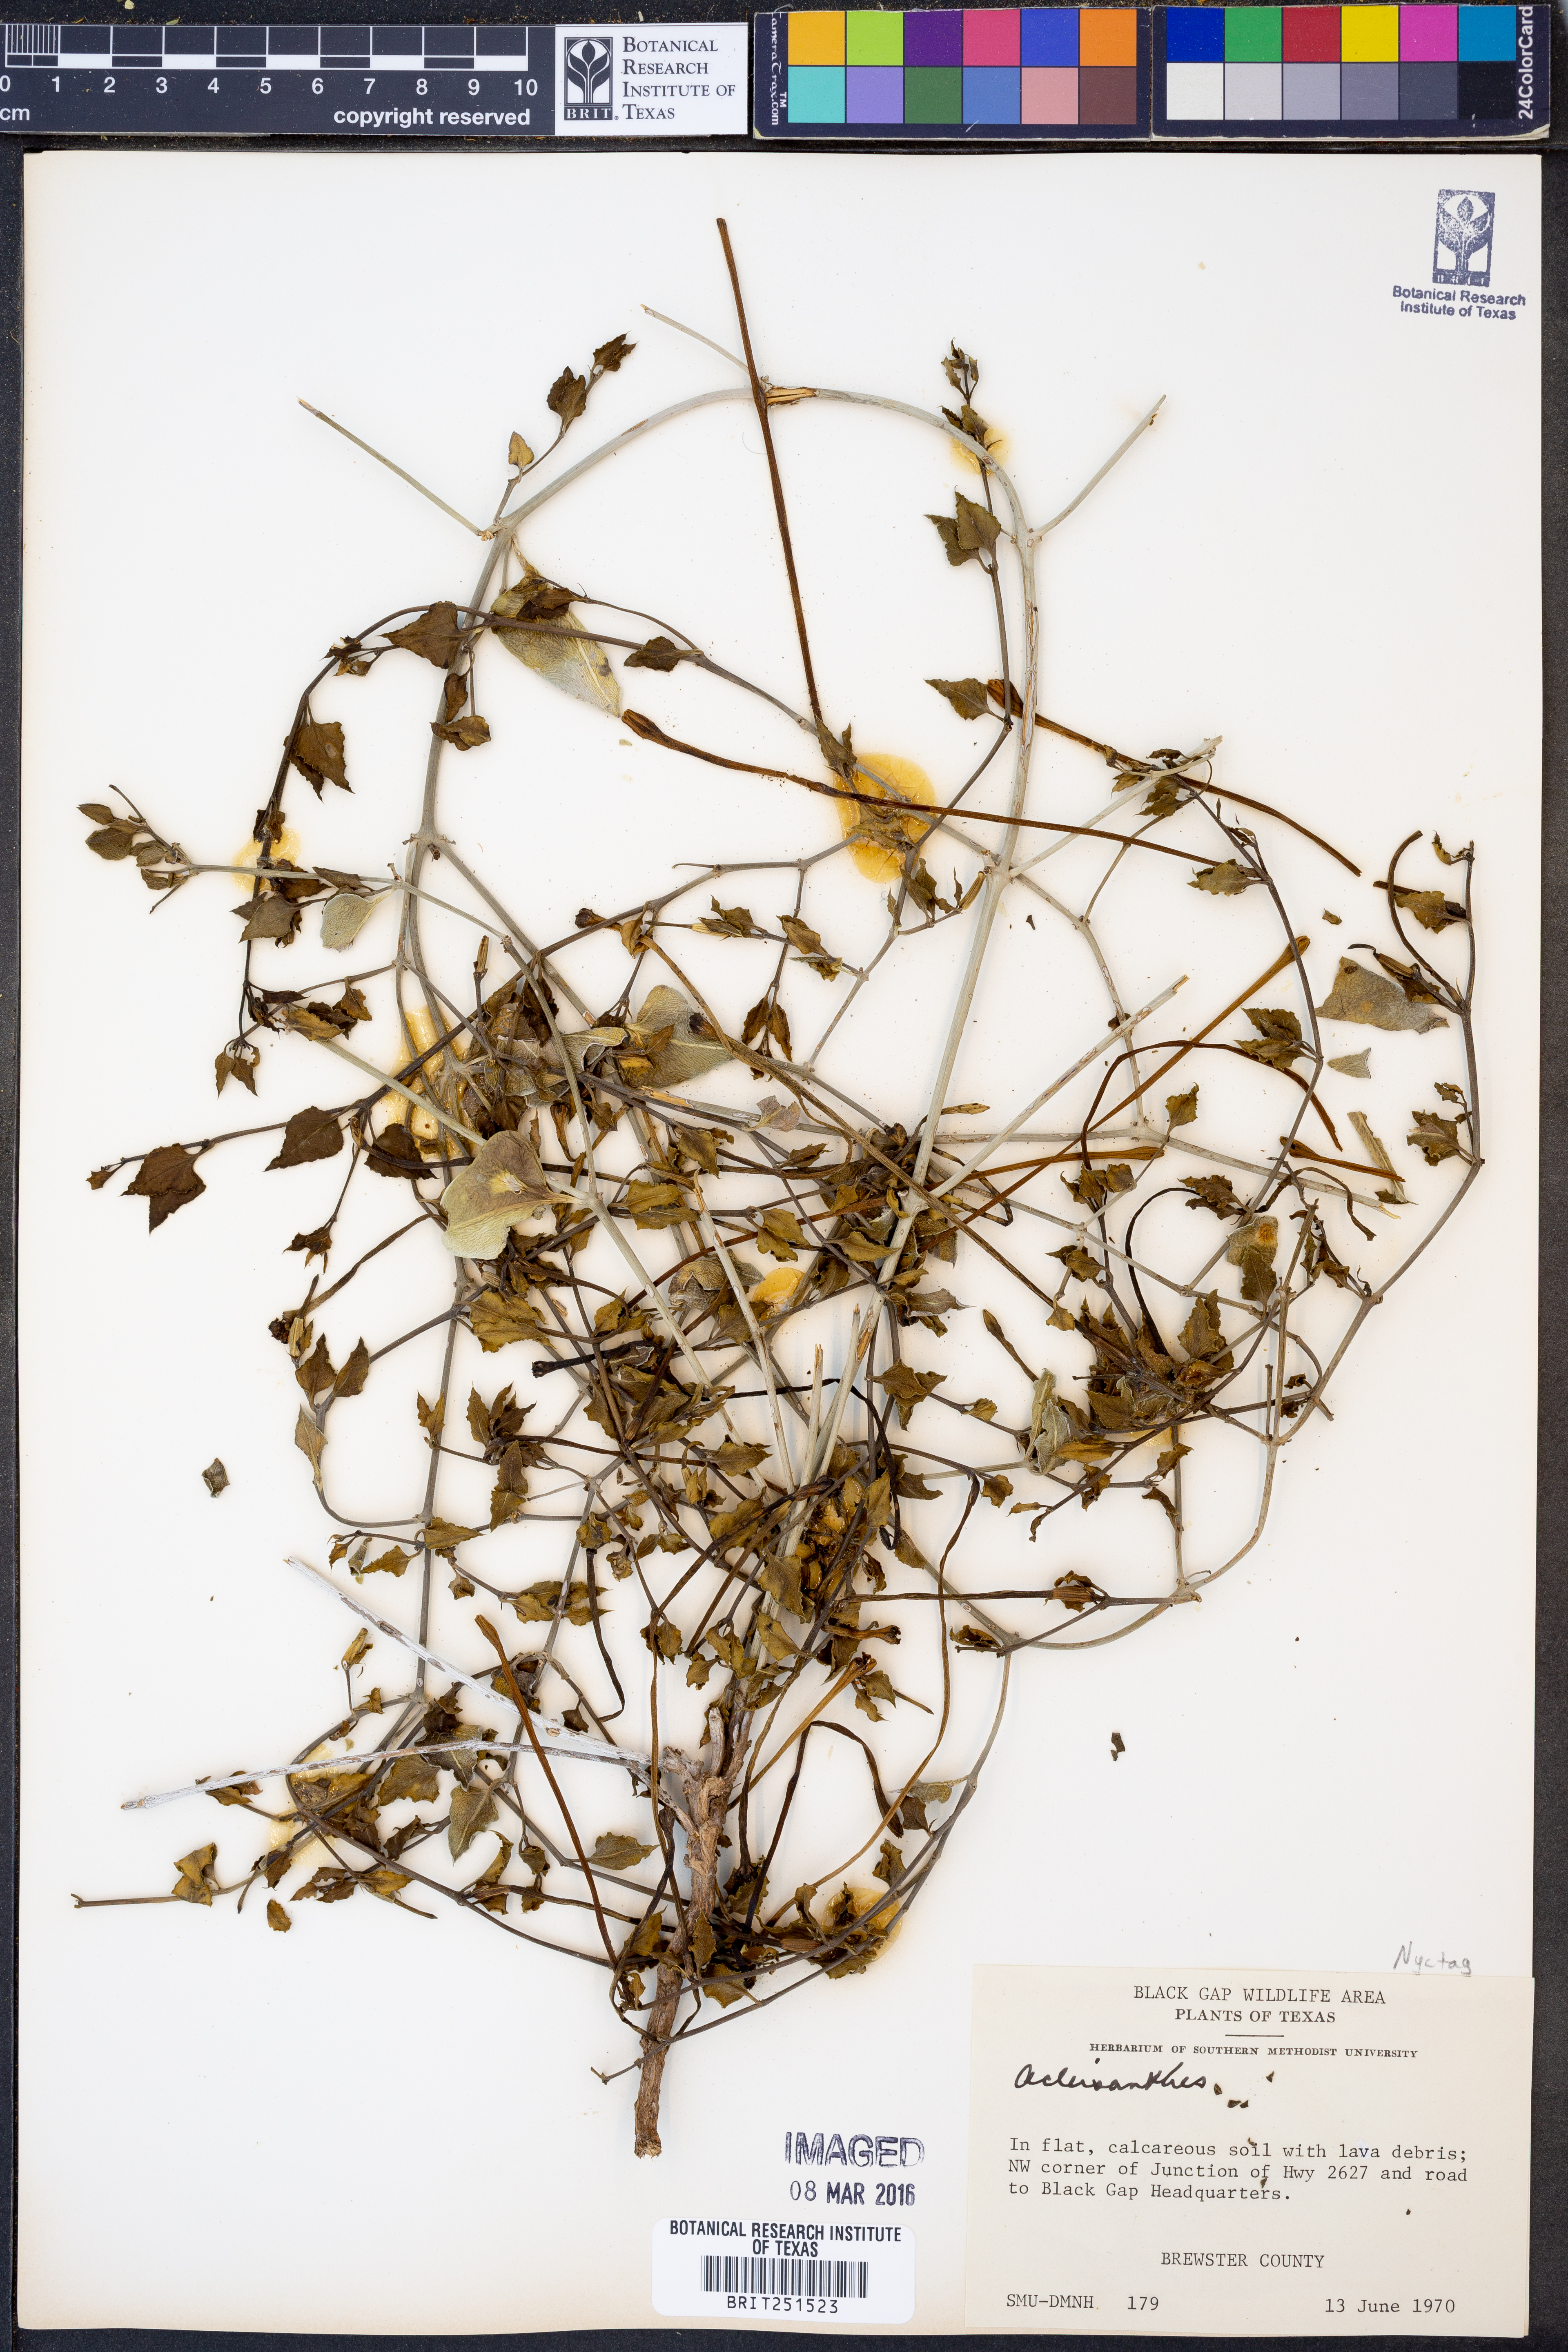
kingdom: Plantae
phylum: Tracheophyta
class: Magnoliopsida
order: Caryophyllales
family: Nyctaginaceae
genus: Acleisanthes
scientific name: Acleisanthes
